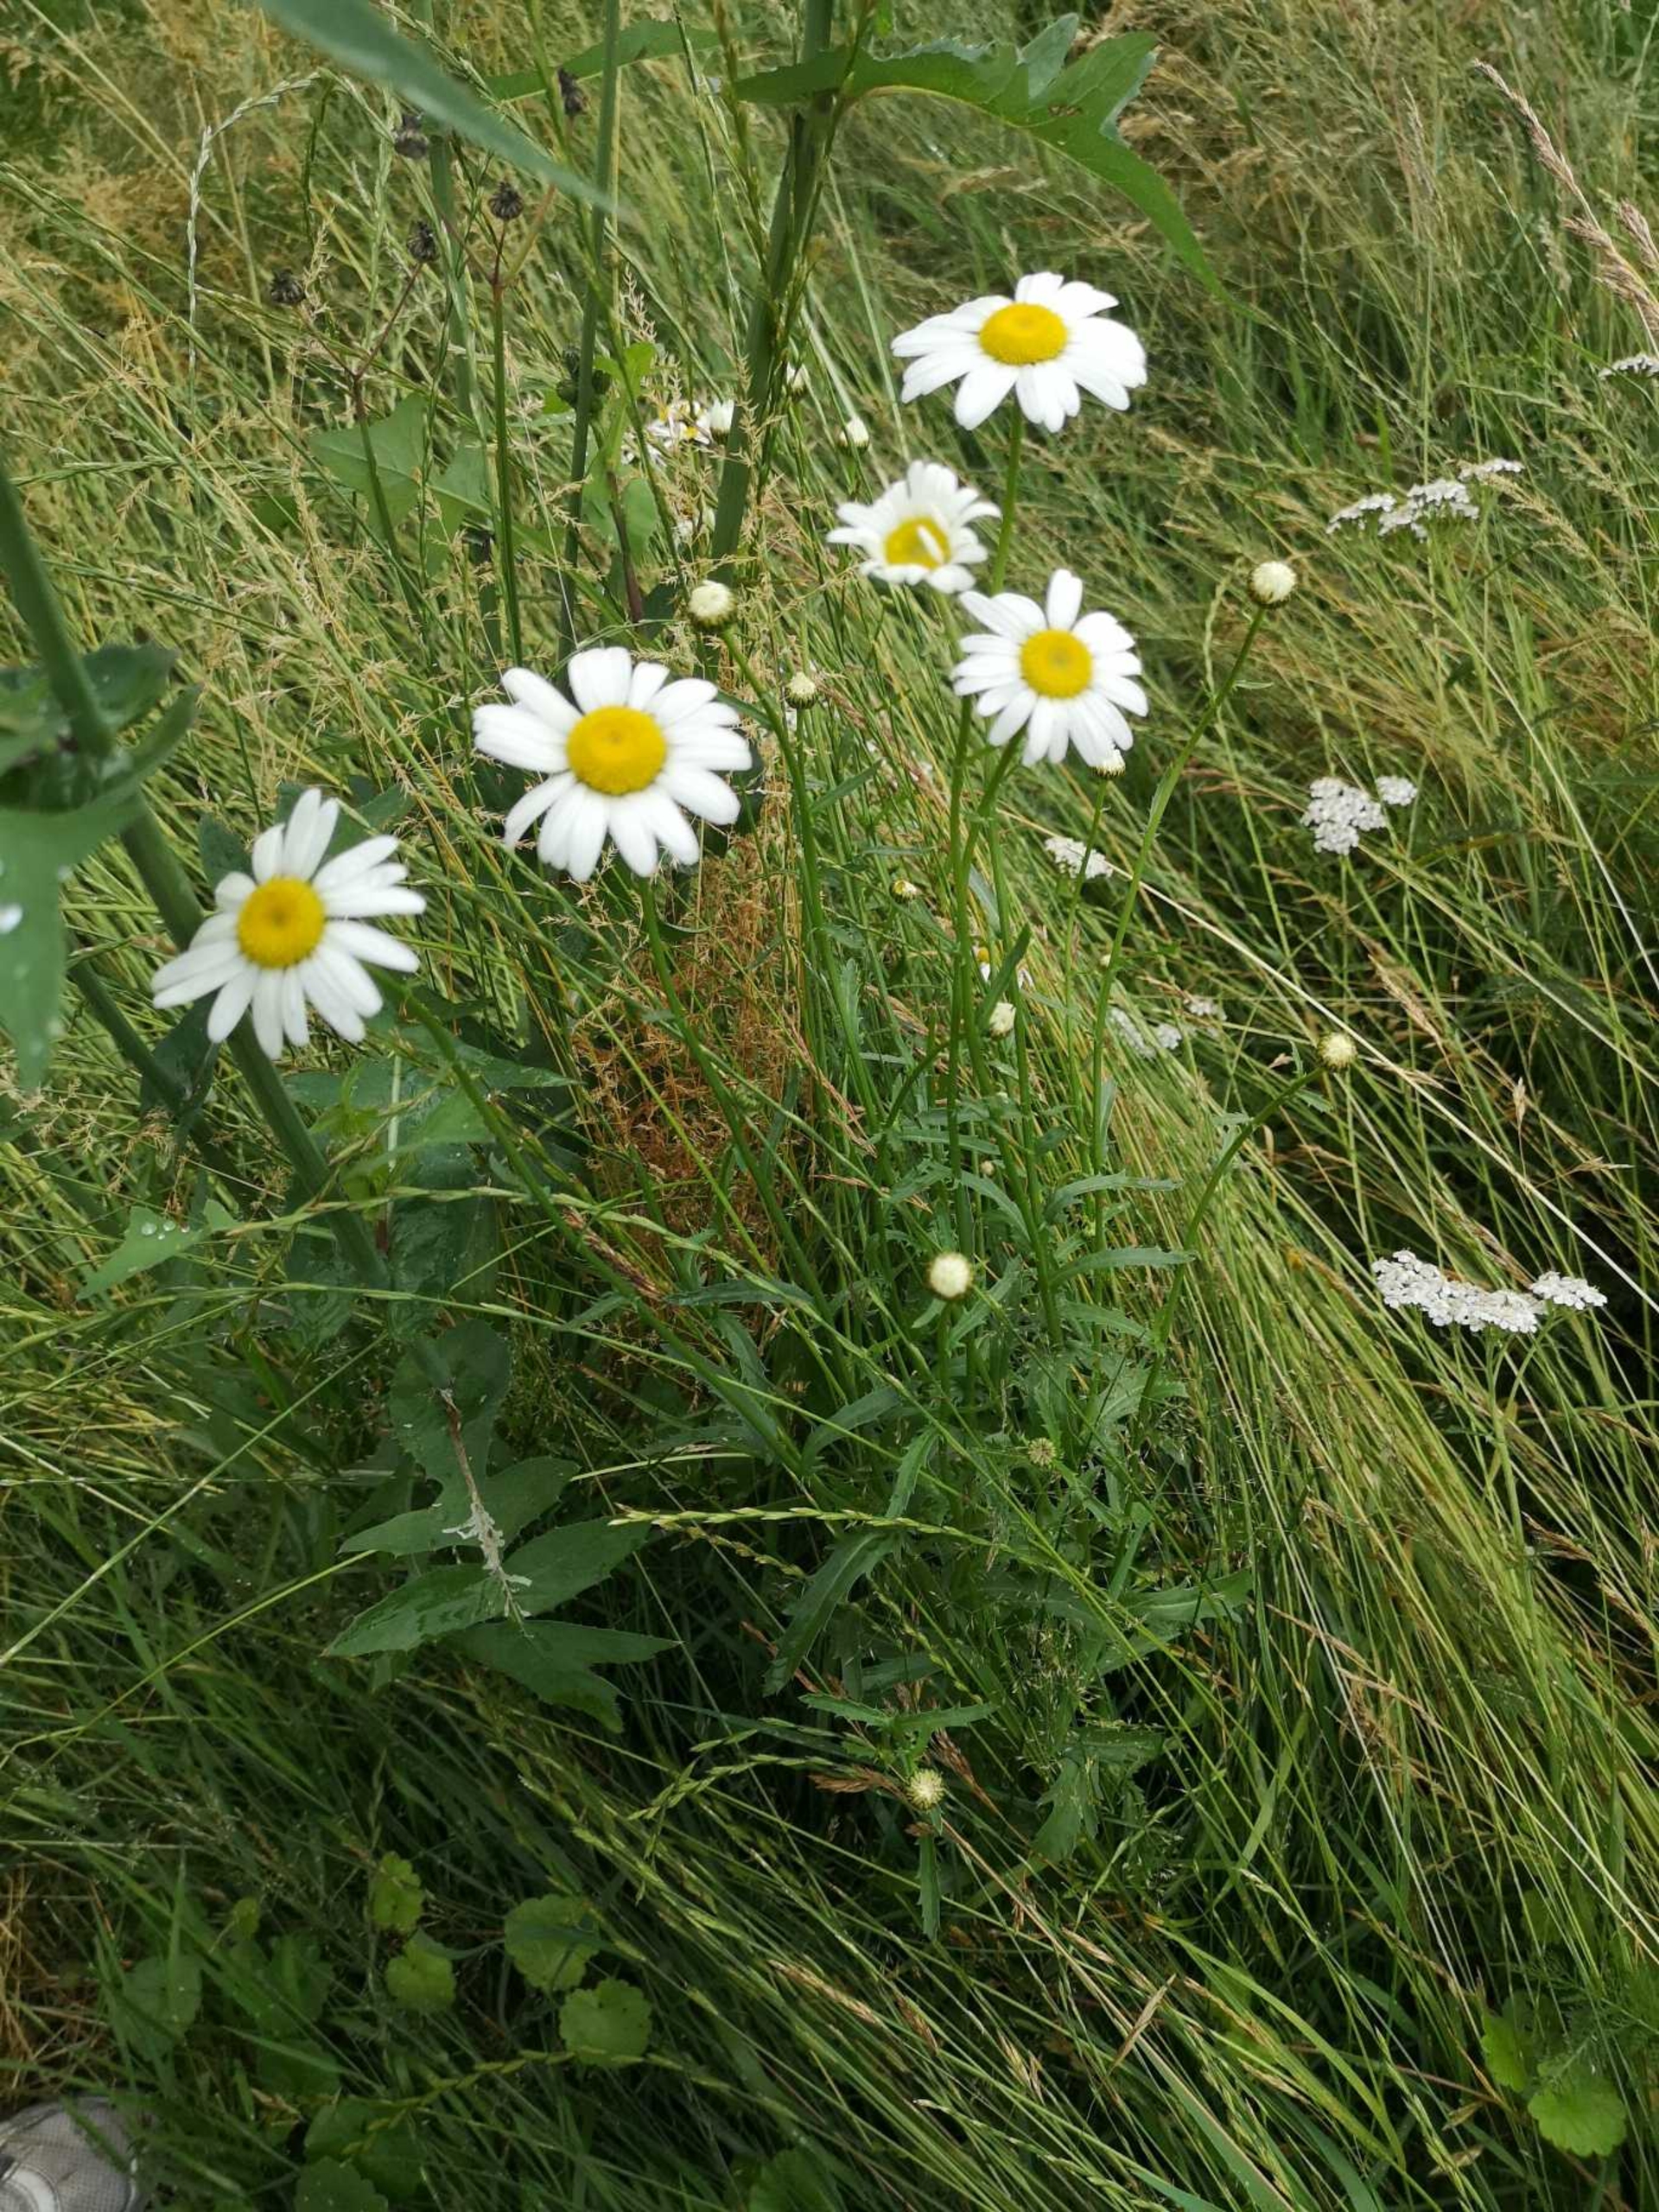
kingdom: Plantae
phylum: Tracheophyta
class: Magnoliopsida
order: Asterales
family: Asteraceae
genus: Leucanthemum
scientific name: Leucanthemum vulgare
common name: Hvid okseøje
